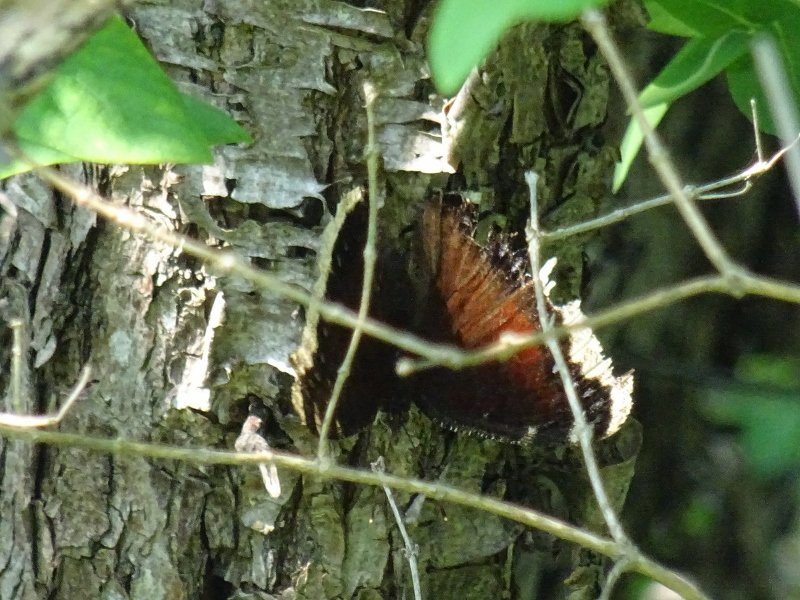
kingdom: Animalia
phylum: Arthropoda
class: Insecta
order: Lepidoptera
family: Nymphalidae
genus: Nymphalis
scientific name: Nymphalis antiopa
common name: Mourning Cloak
